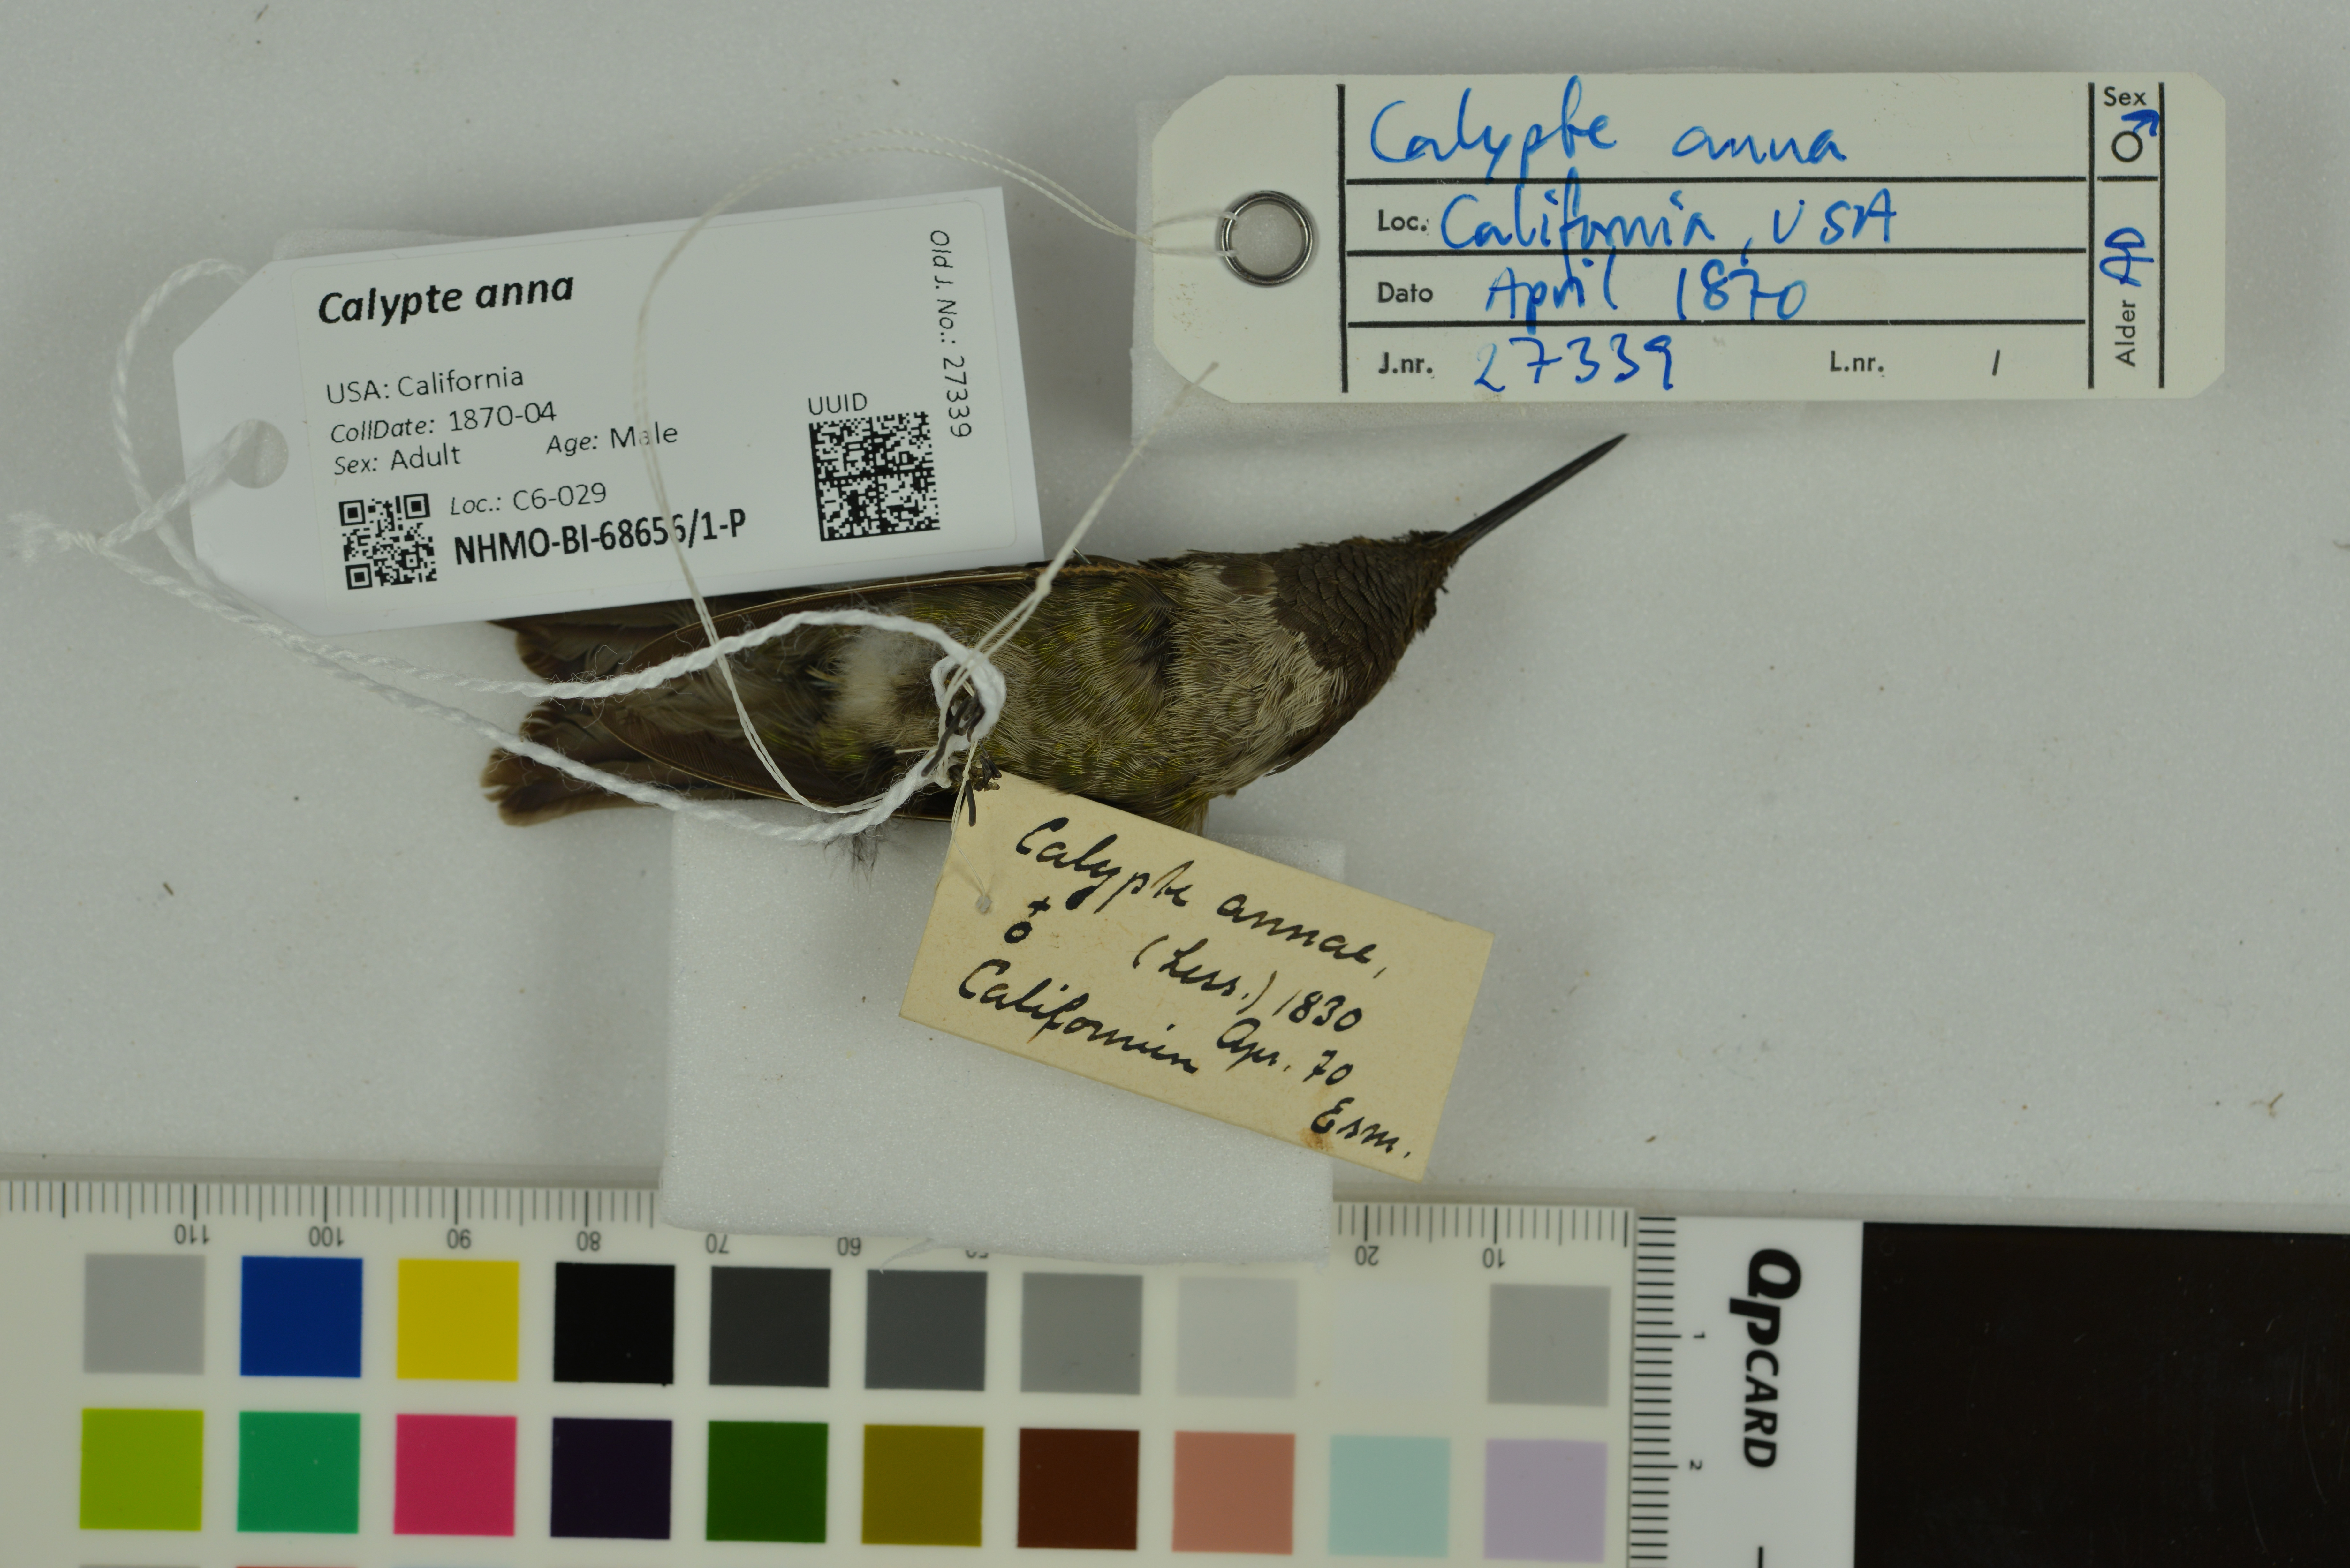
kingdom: Animalia
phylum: Chordata
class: Aves
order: Apodiformes
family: Trochilidae
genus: Calypte
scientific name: Calypte anna
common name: Anna's hummingbird
